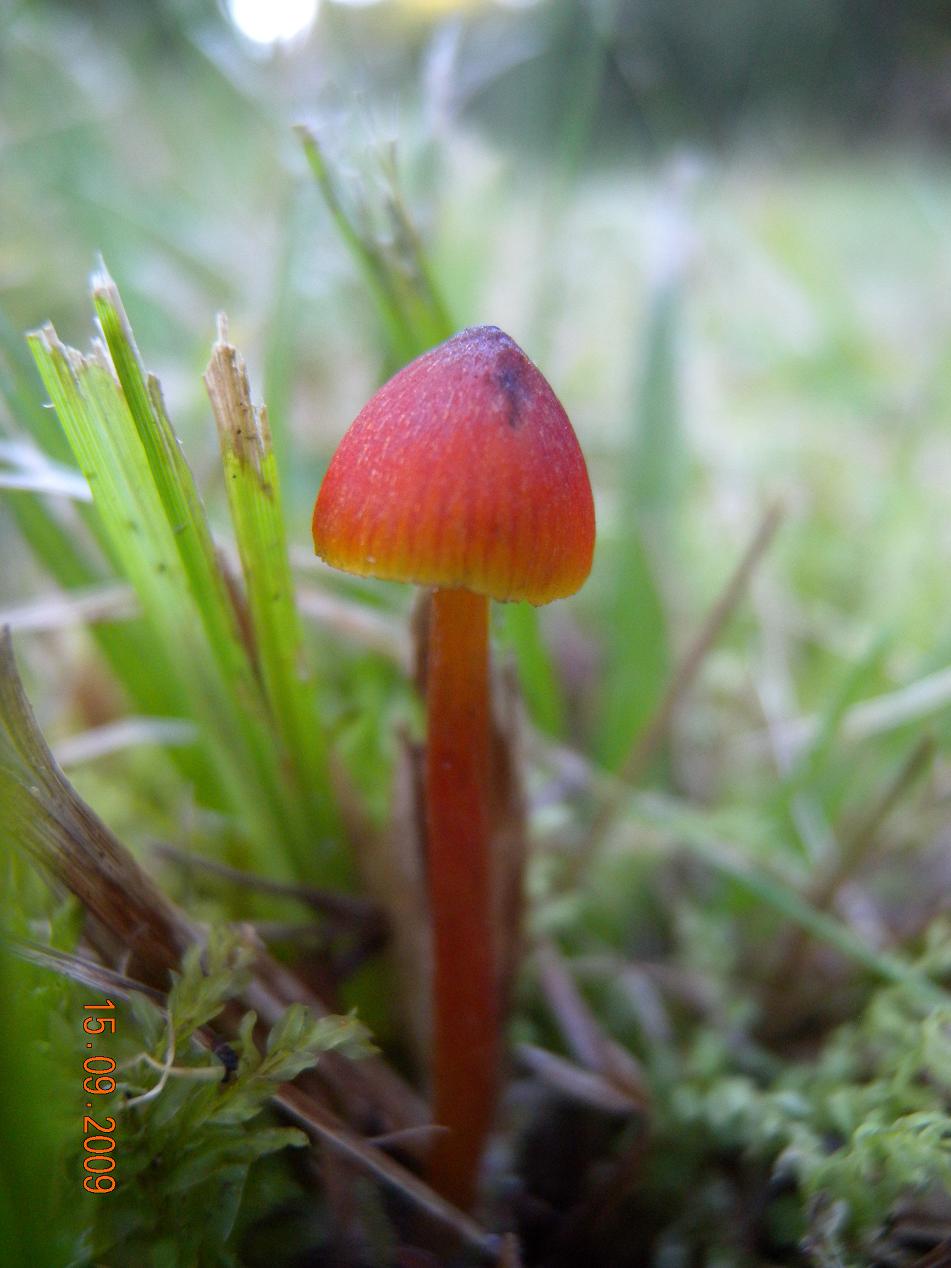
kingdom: Fungi
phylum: Basidiomycota
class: Agaricomycetes
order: Agaricales
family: Hygrophoraceae
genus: Hygrocybe
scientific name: Hygrocybe conica
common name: Blackening wax-cap
